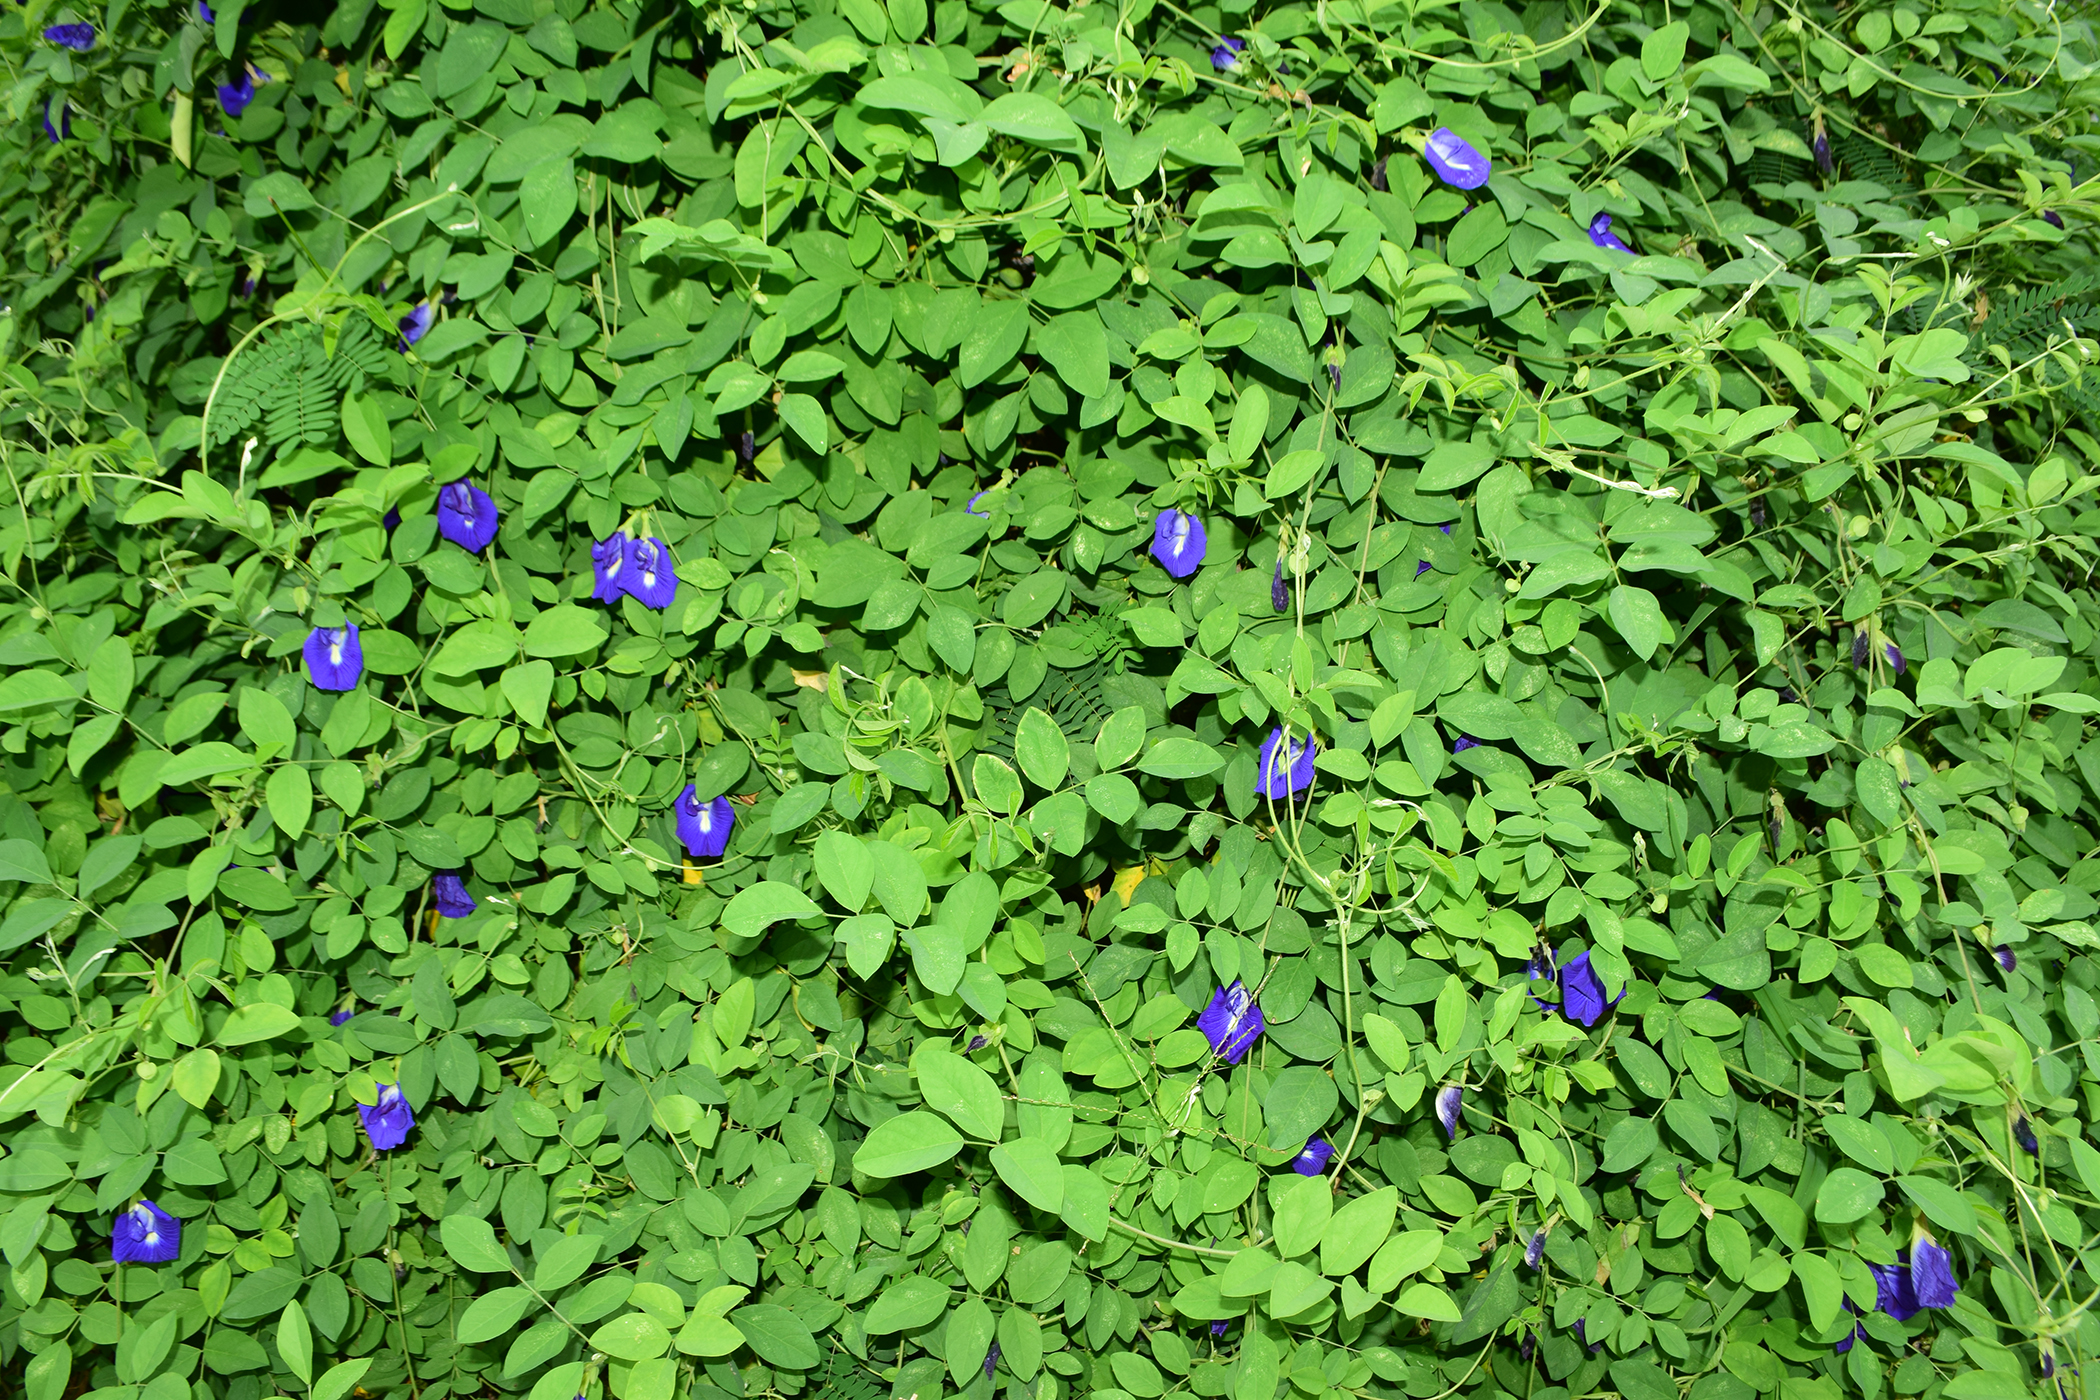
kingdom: Plantae
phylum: Tracheophyta
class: Magnoliopsida
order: Fabales
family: Fabaceae
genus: Clitoria
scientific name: Clitoria ternatea
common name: Asian pigeonwings
